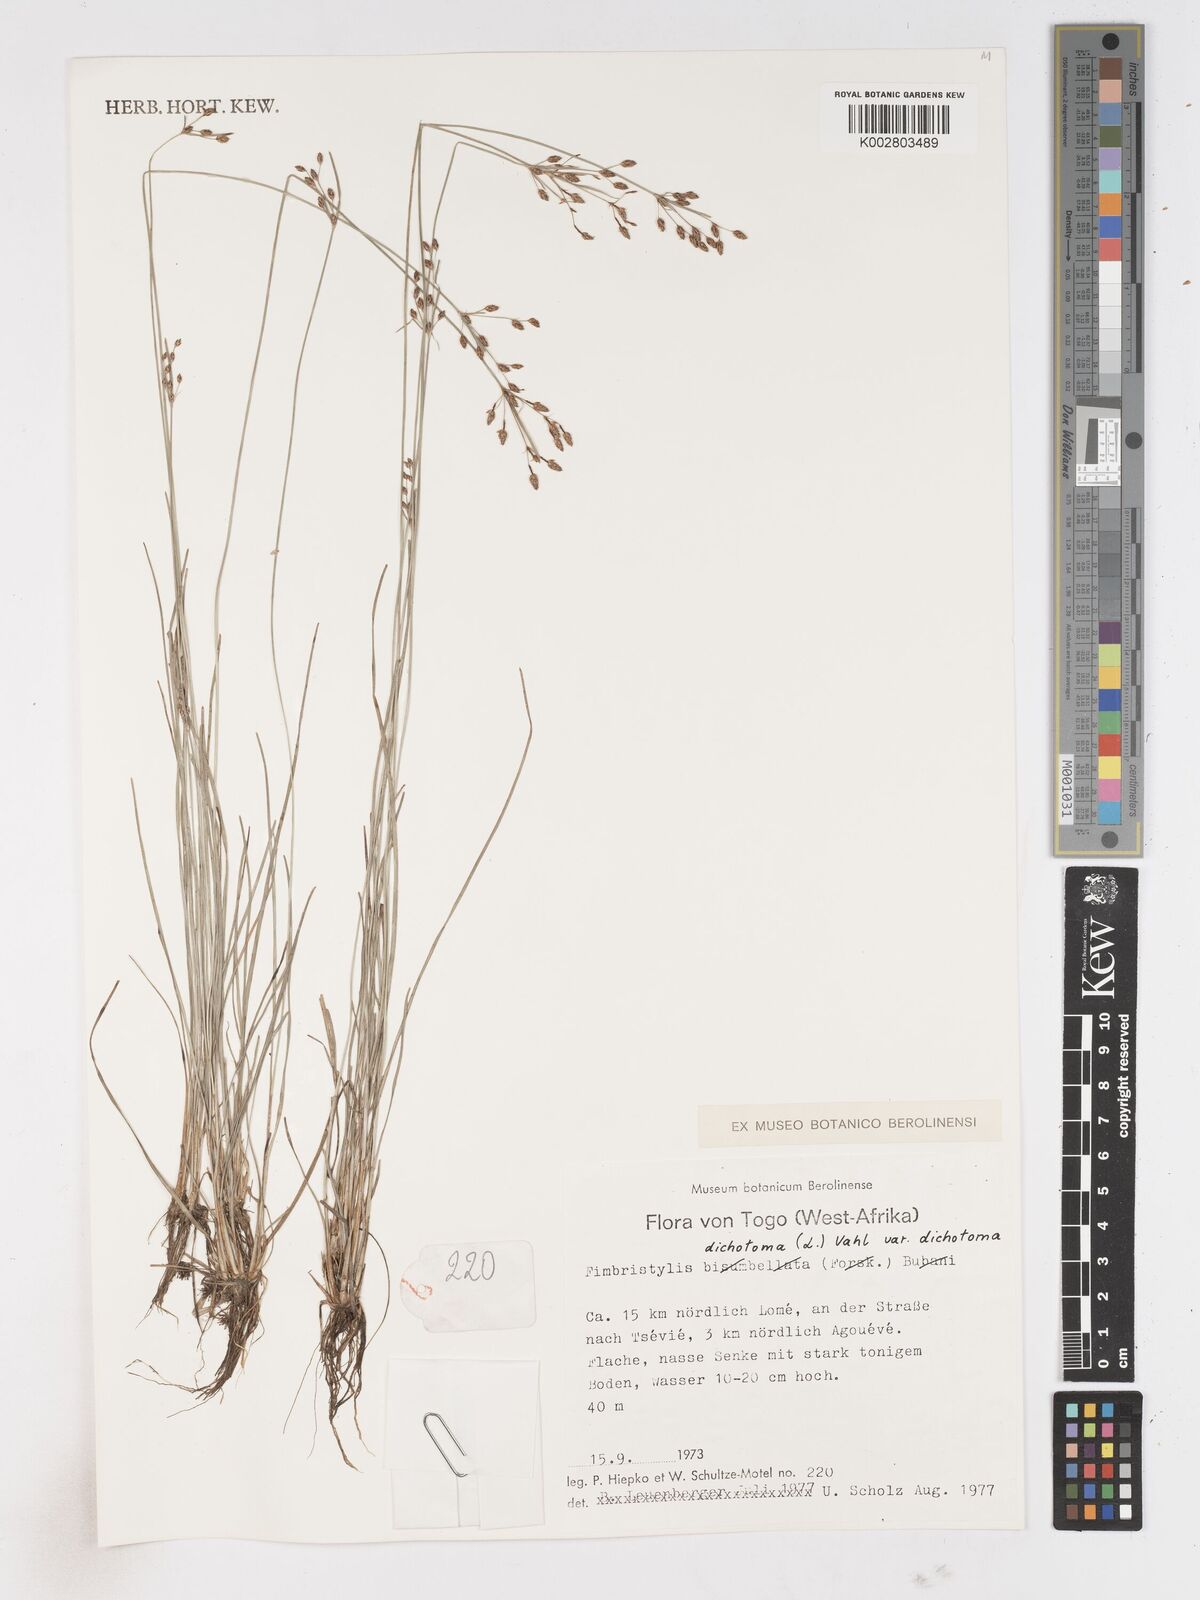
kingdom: Plantae
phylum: Tracheophyta
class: Liliopsida
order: Poales
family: Cyperaceae
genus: Fimbristylis
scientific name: Fimbristylis dichotoma
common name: Forked fimbry
